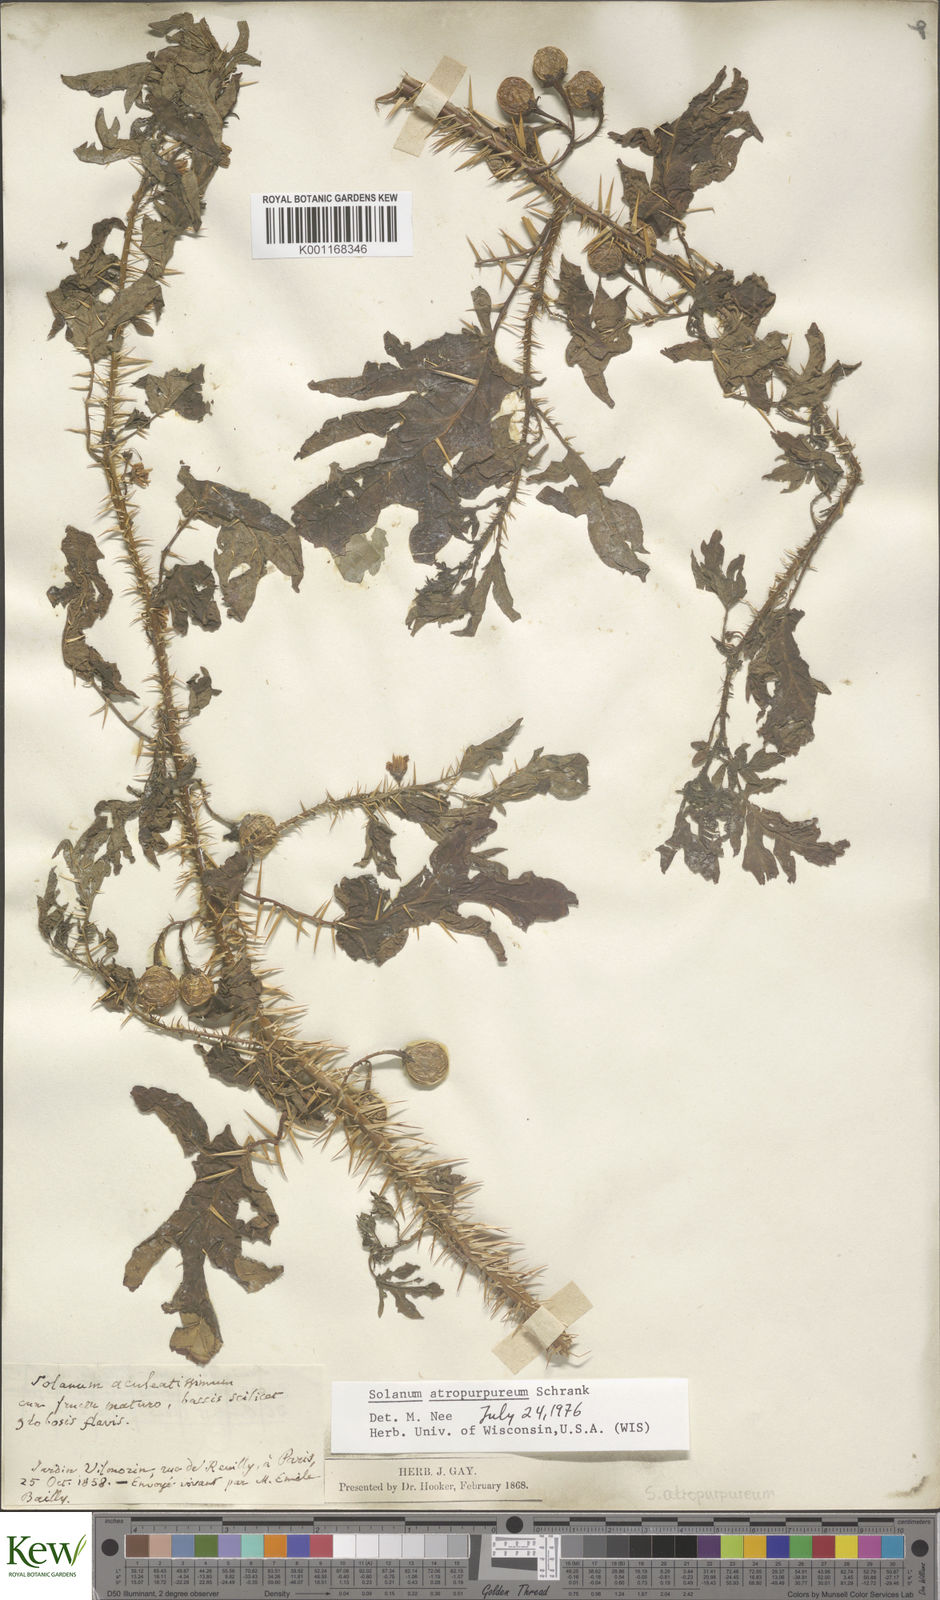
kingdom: Plantae
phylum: Tracheophyta
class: Magnoliopsida
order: Solanales
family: Solanaceae
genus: Solanum
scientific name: Solanum
